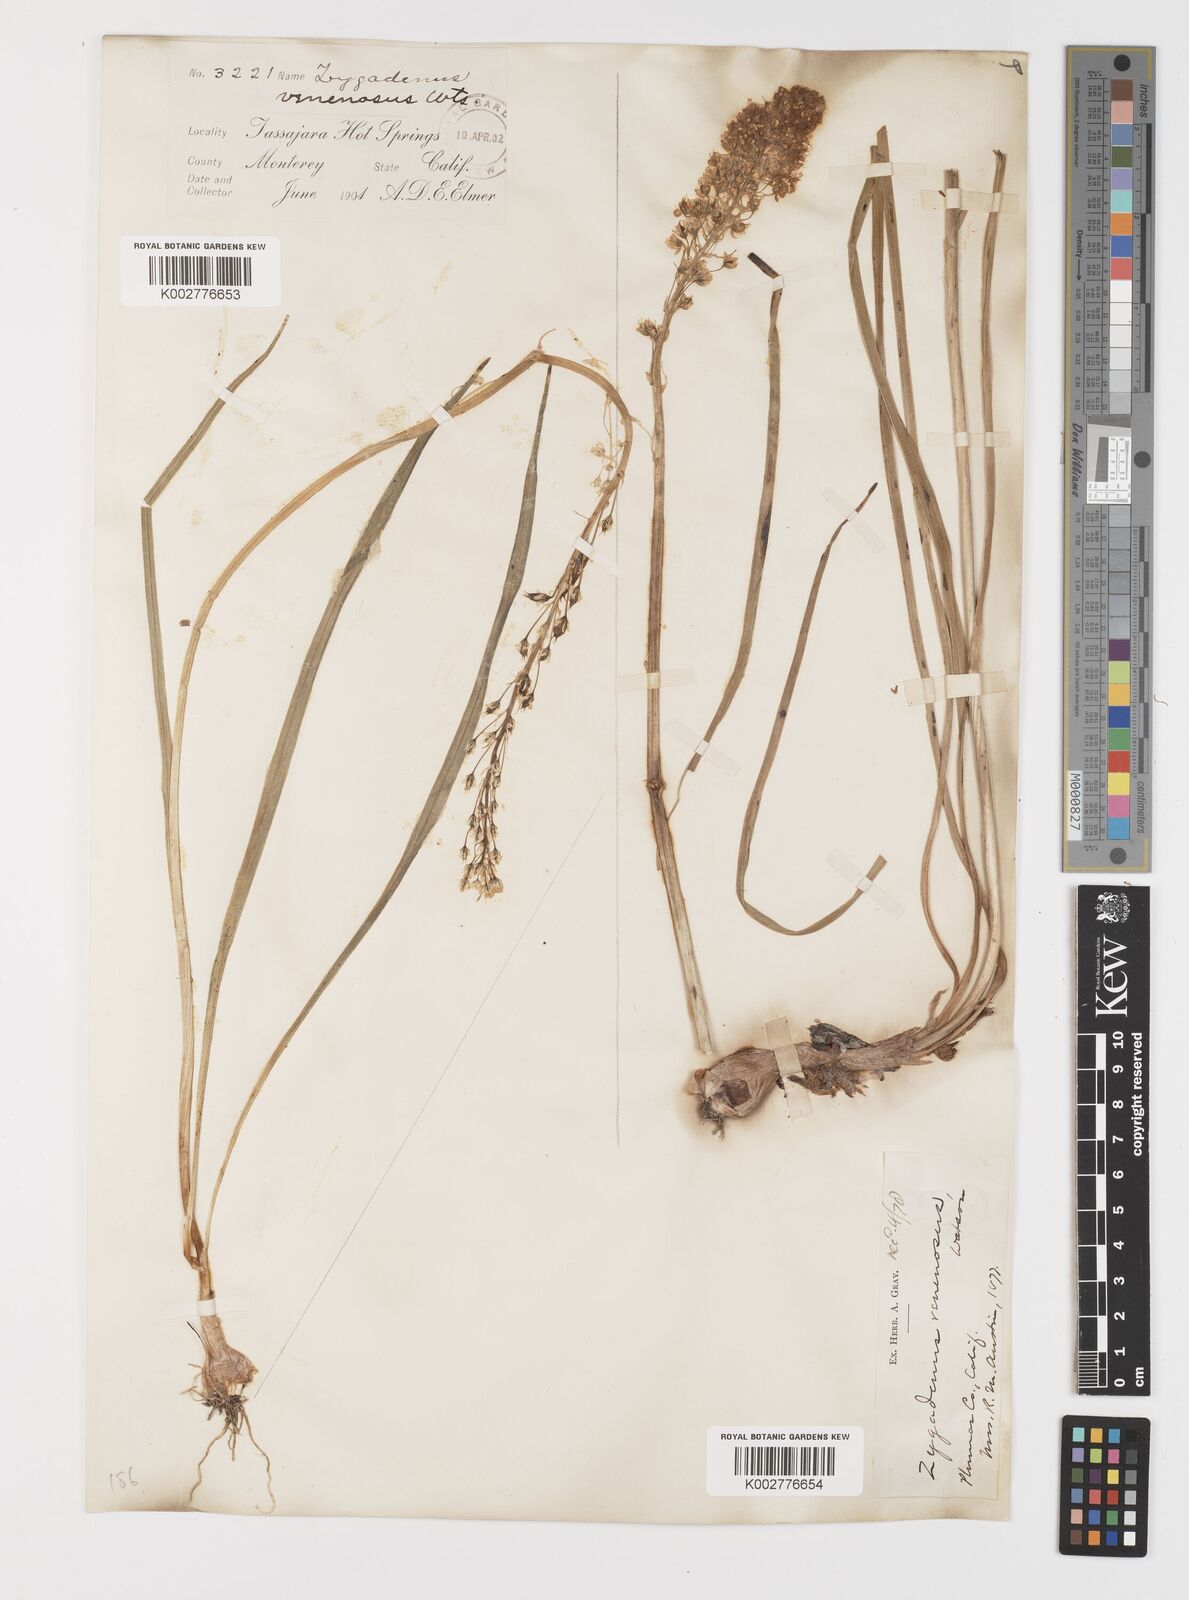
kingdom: Plantae
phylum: Tracheophyta
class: Liliopsida
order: Liliales
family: Melanthiaceae
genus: Toxicoscordion
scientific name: Toxicoscordion venenosum
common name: Meadow death camas
